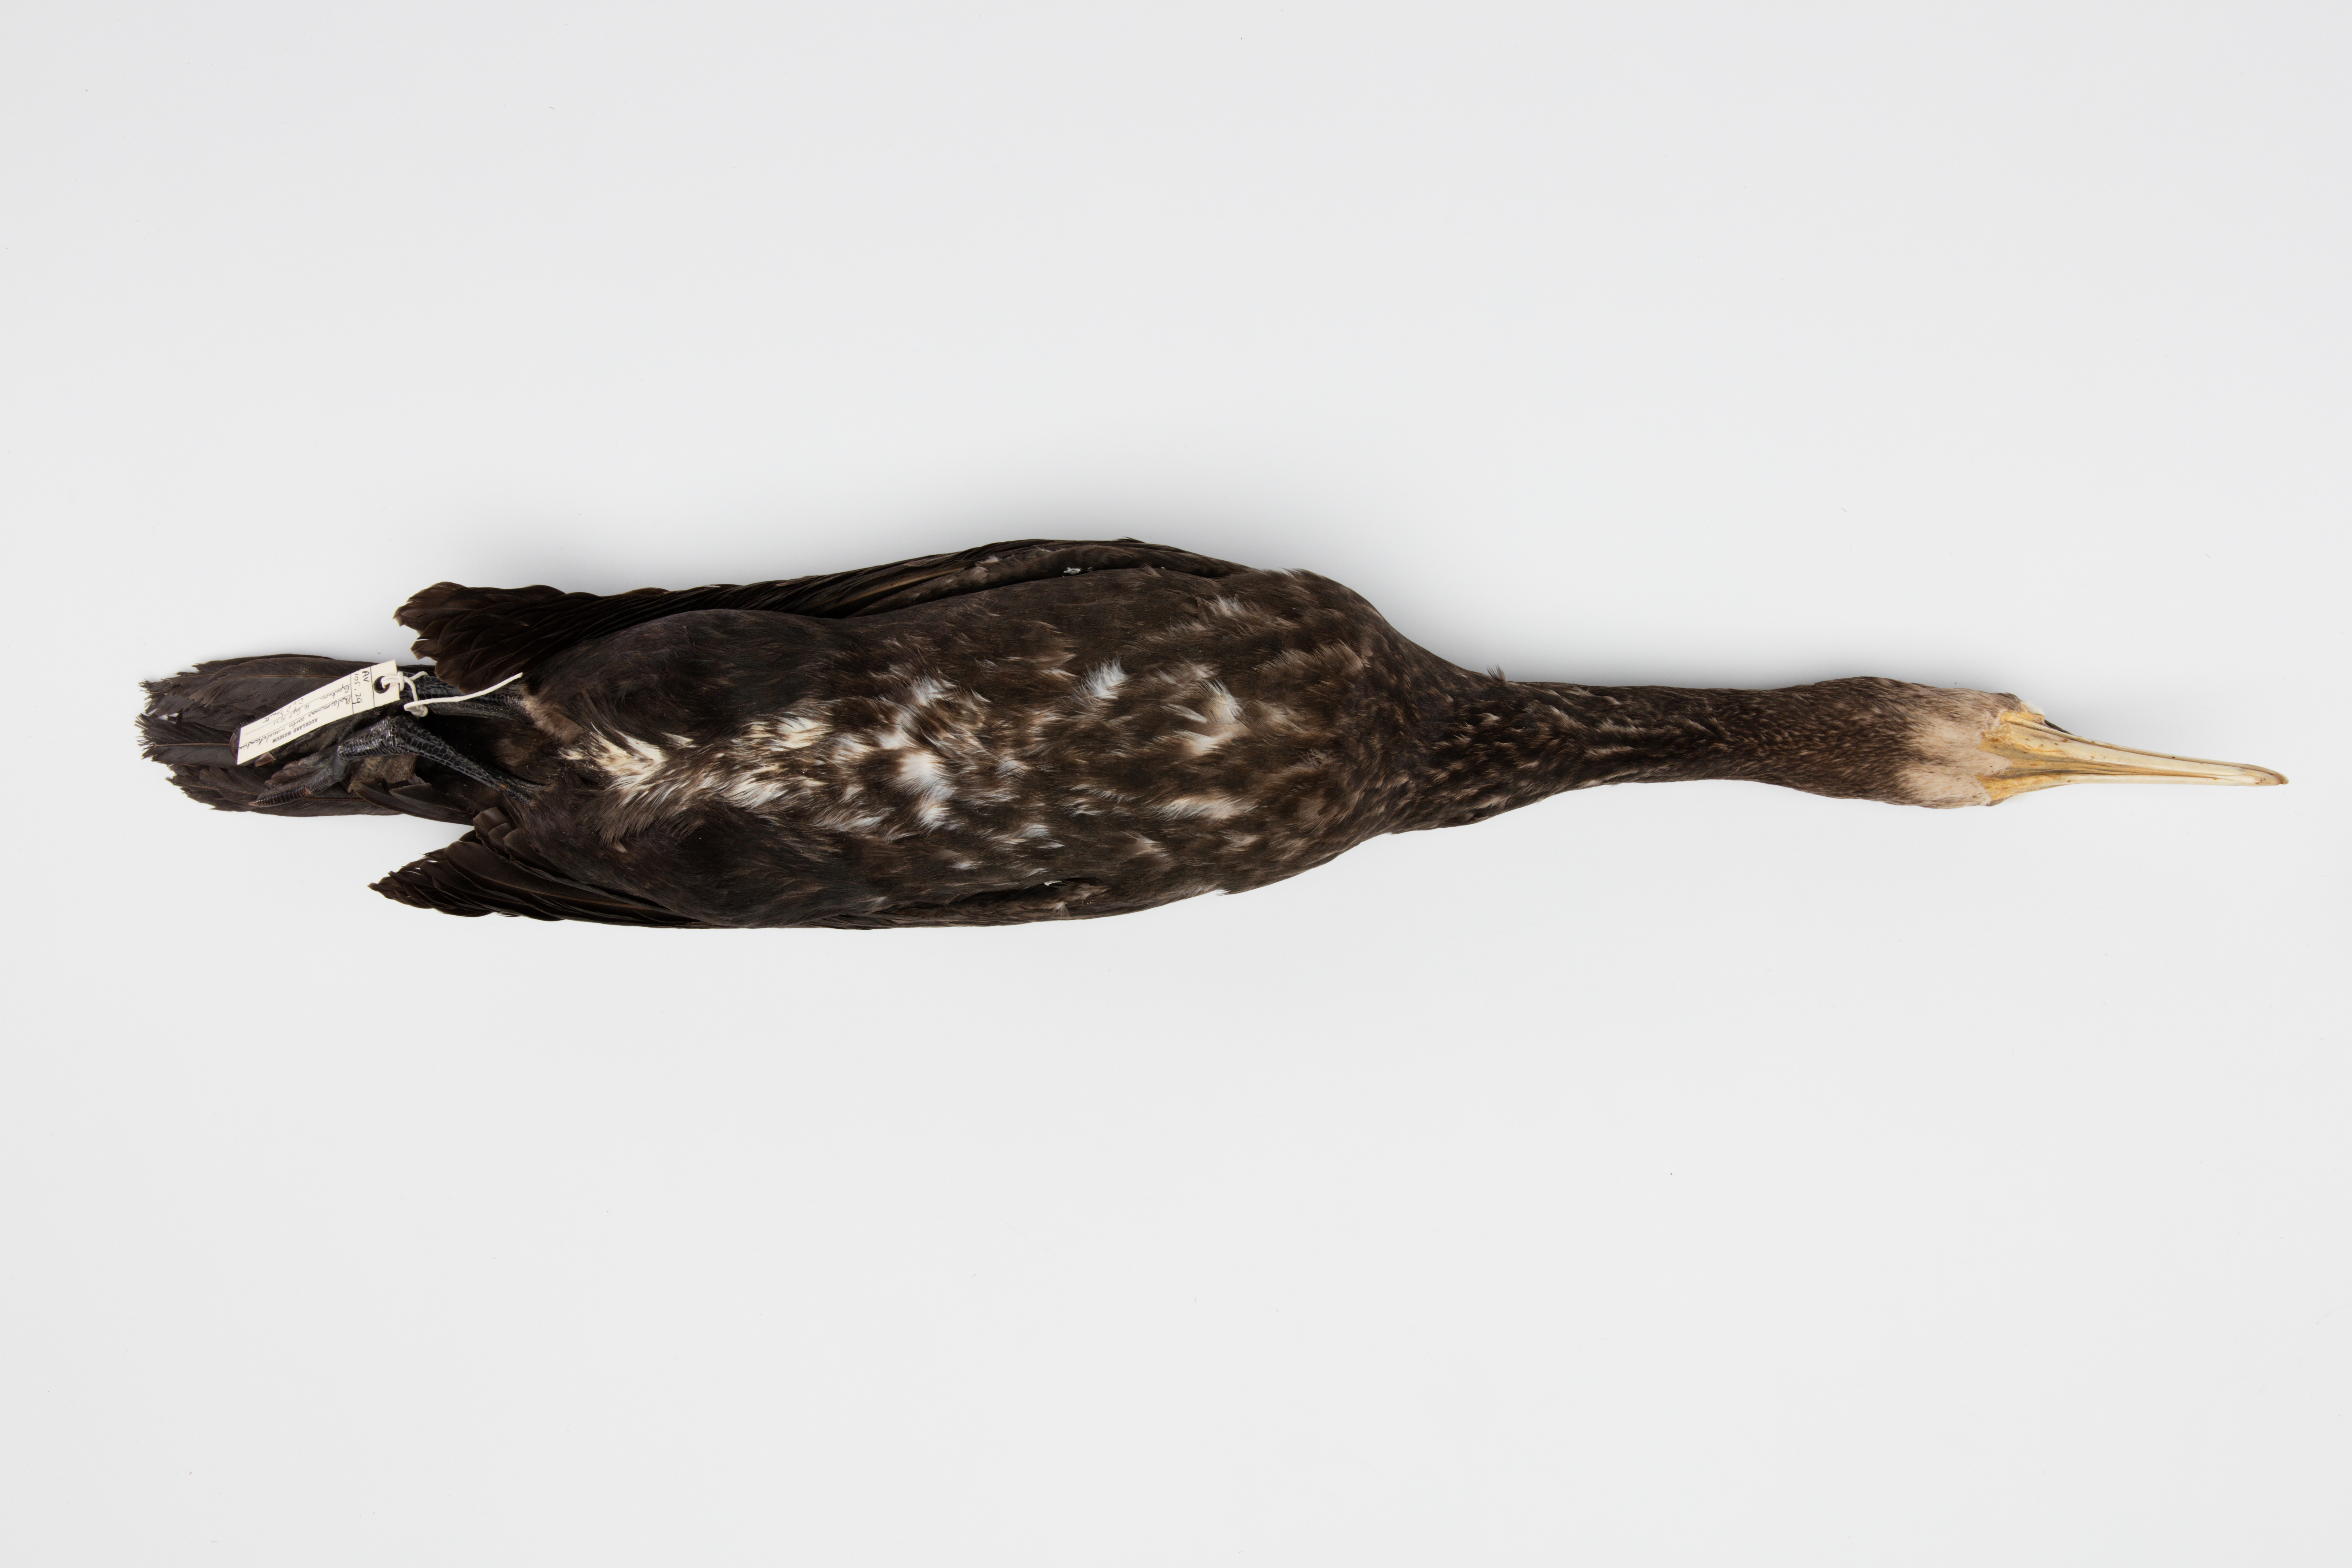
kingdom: Animalia
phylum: Chordata
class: Aves
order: Suliformes
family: Phalacrocoracidae
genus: Phalacrocorax
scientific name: Phalacrocorax carbo
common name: Great cormorant
